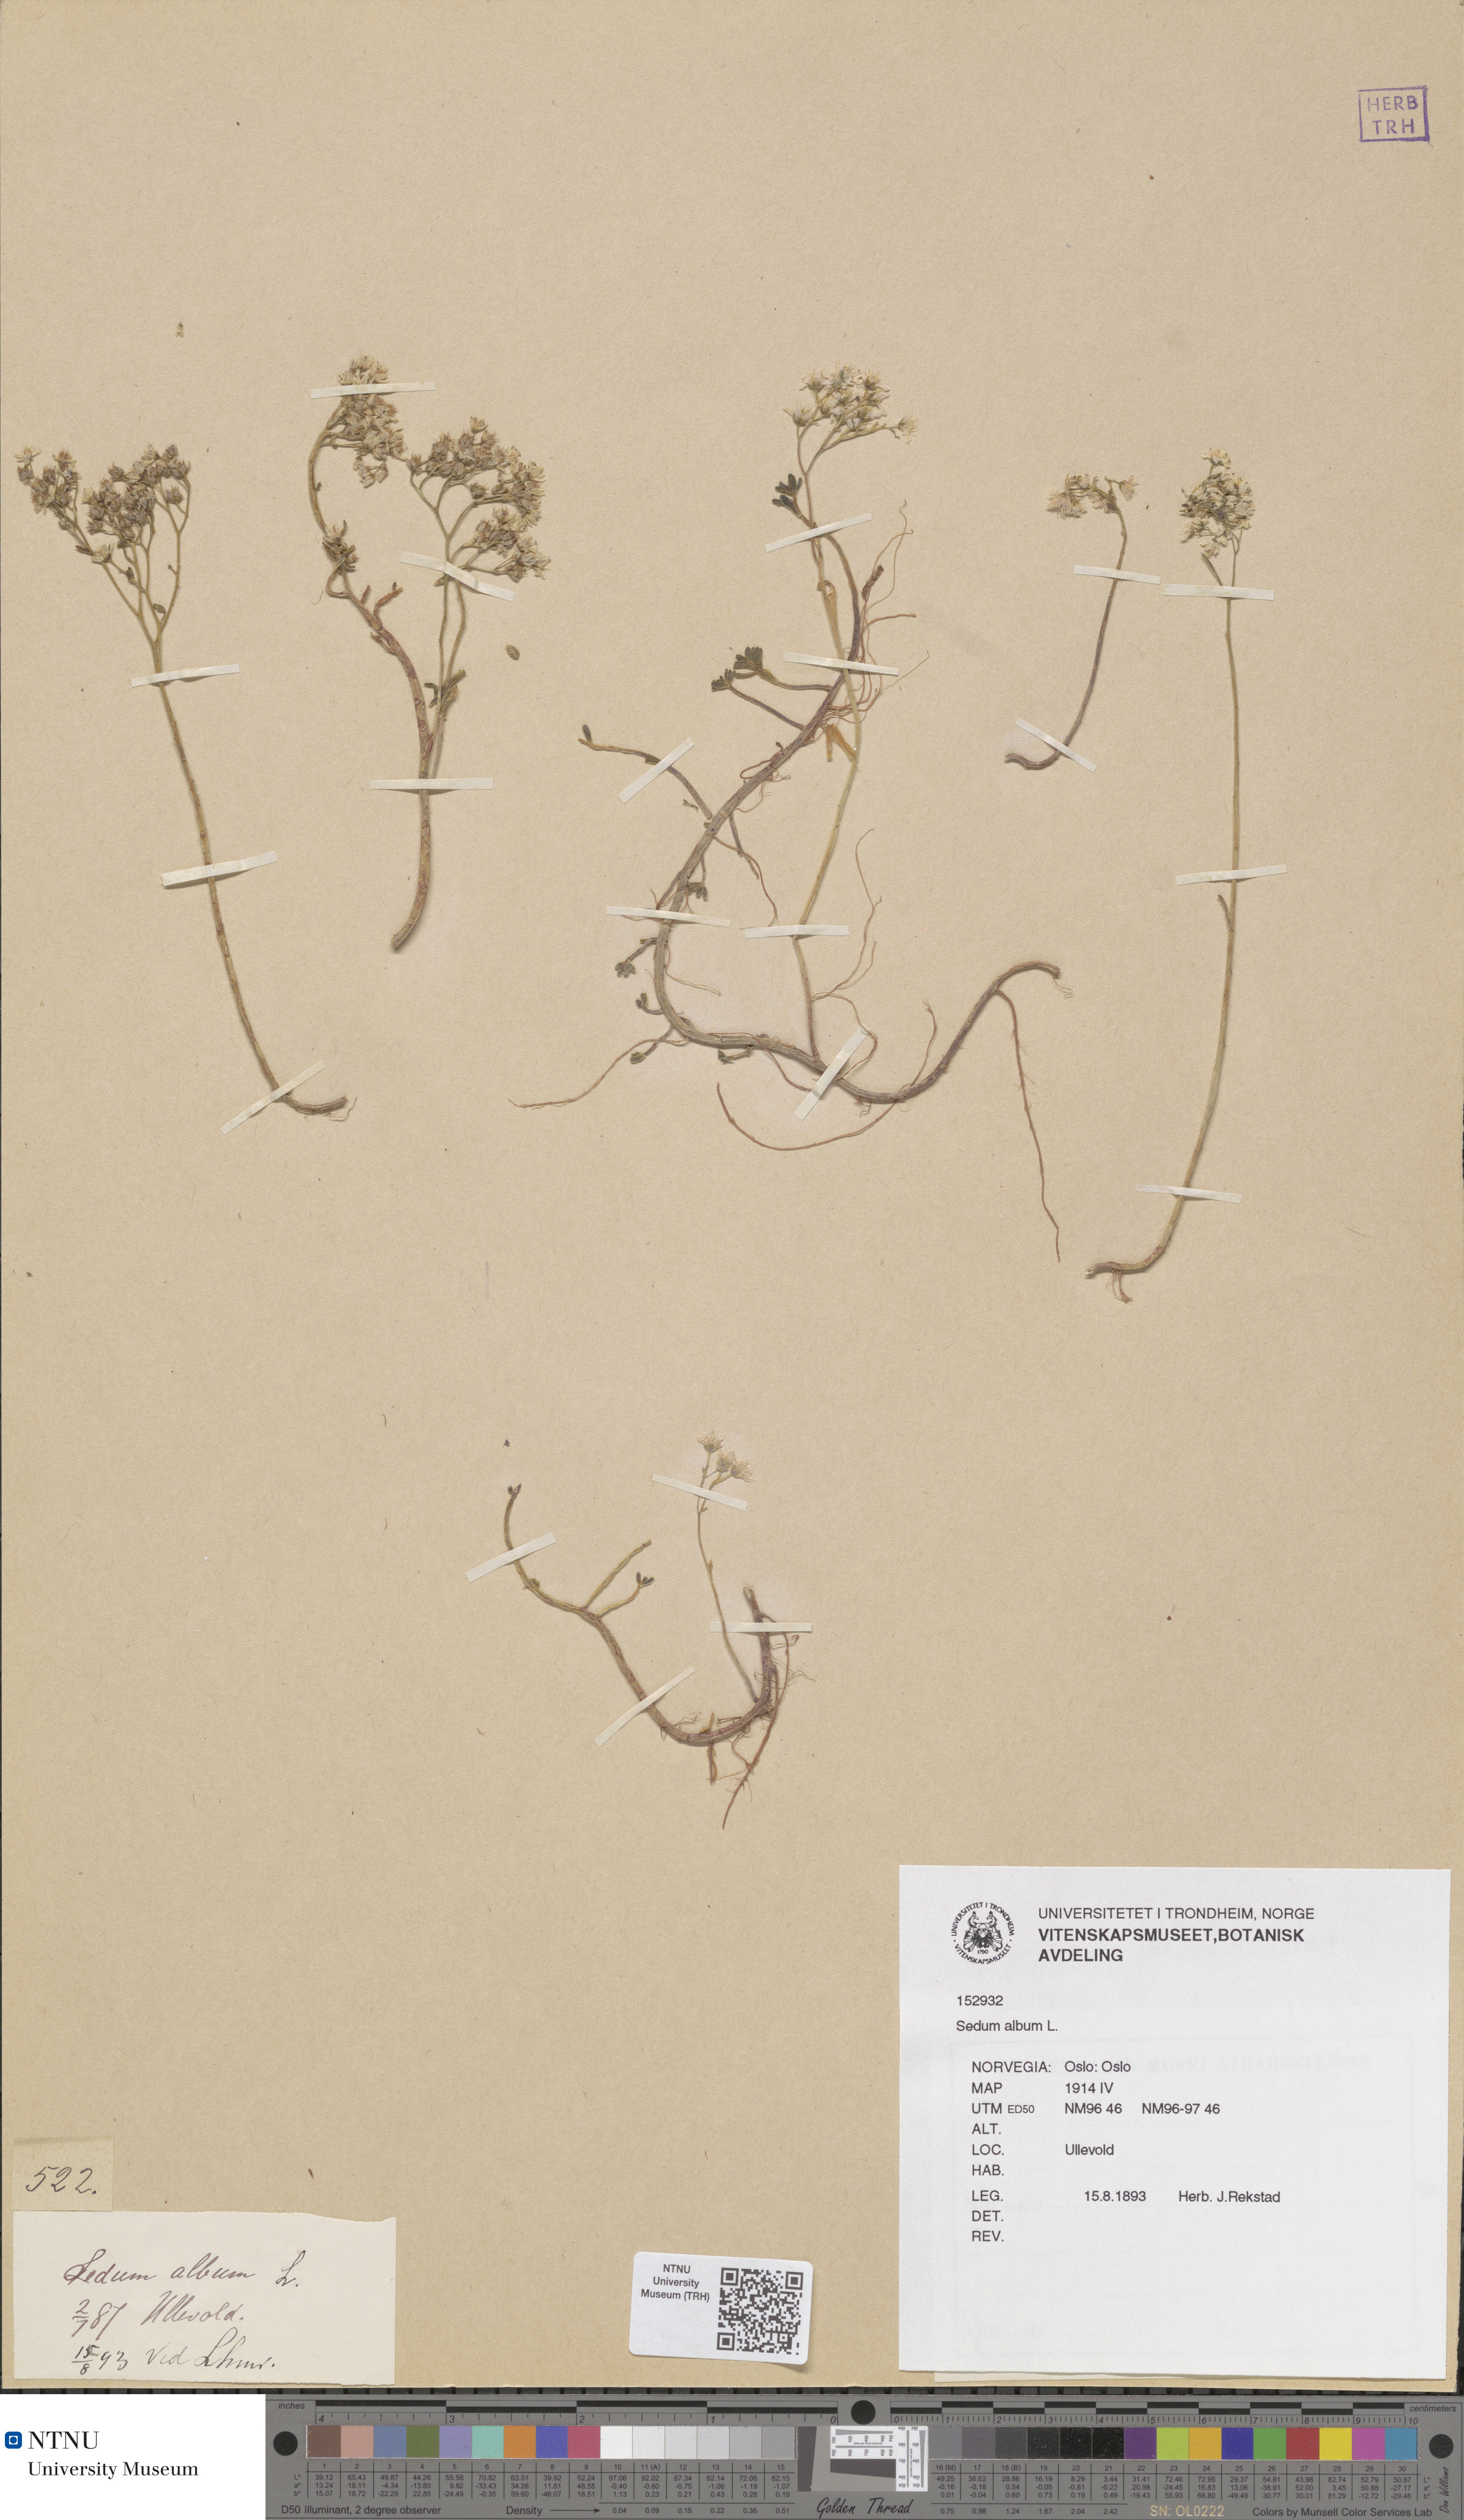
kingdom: Plantae
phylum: Tracheophyta
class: Magnoliopsida
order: Saxifragales
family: Crassulaceae
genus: Sedum
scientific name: Sedum album
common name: White stonecrop
